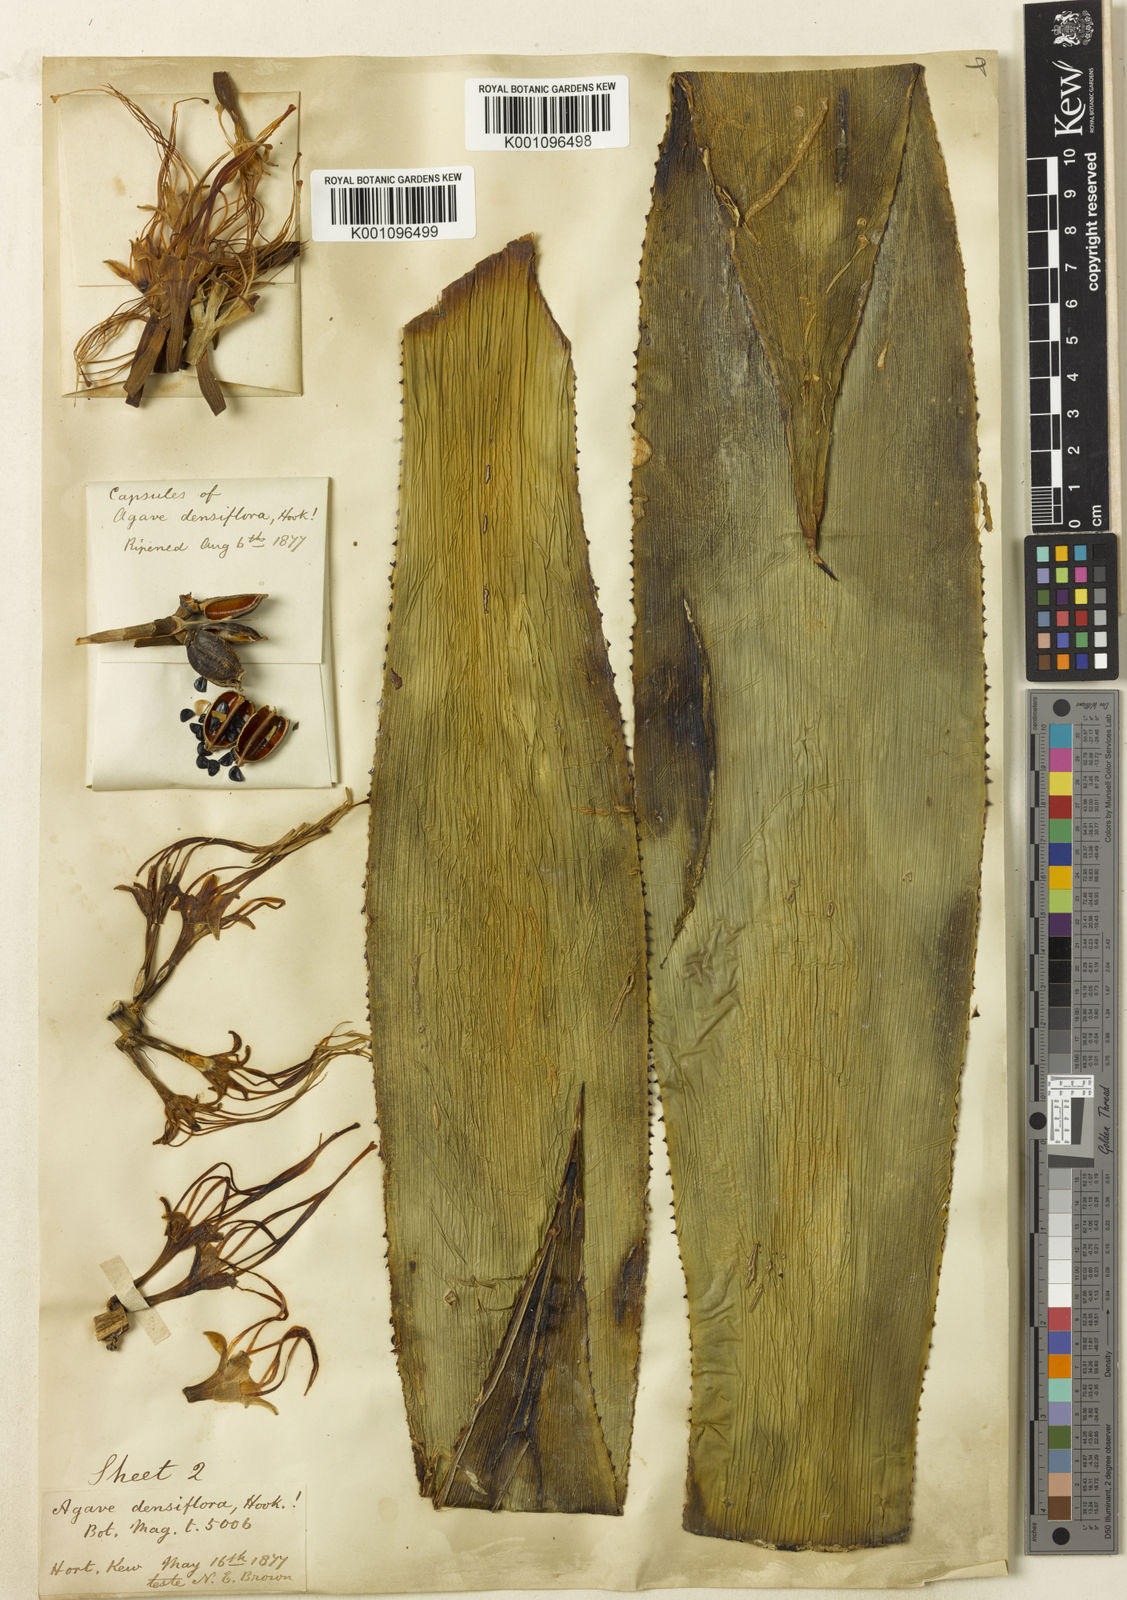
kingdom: Plantae
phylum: Tracheophyta
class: Liliopsida
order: Asparagales
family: Asparagaceae
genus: Agave
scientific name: Agave polyacantha
